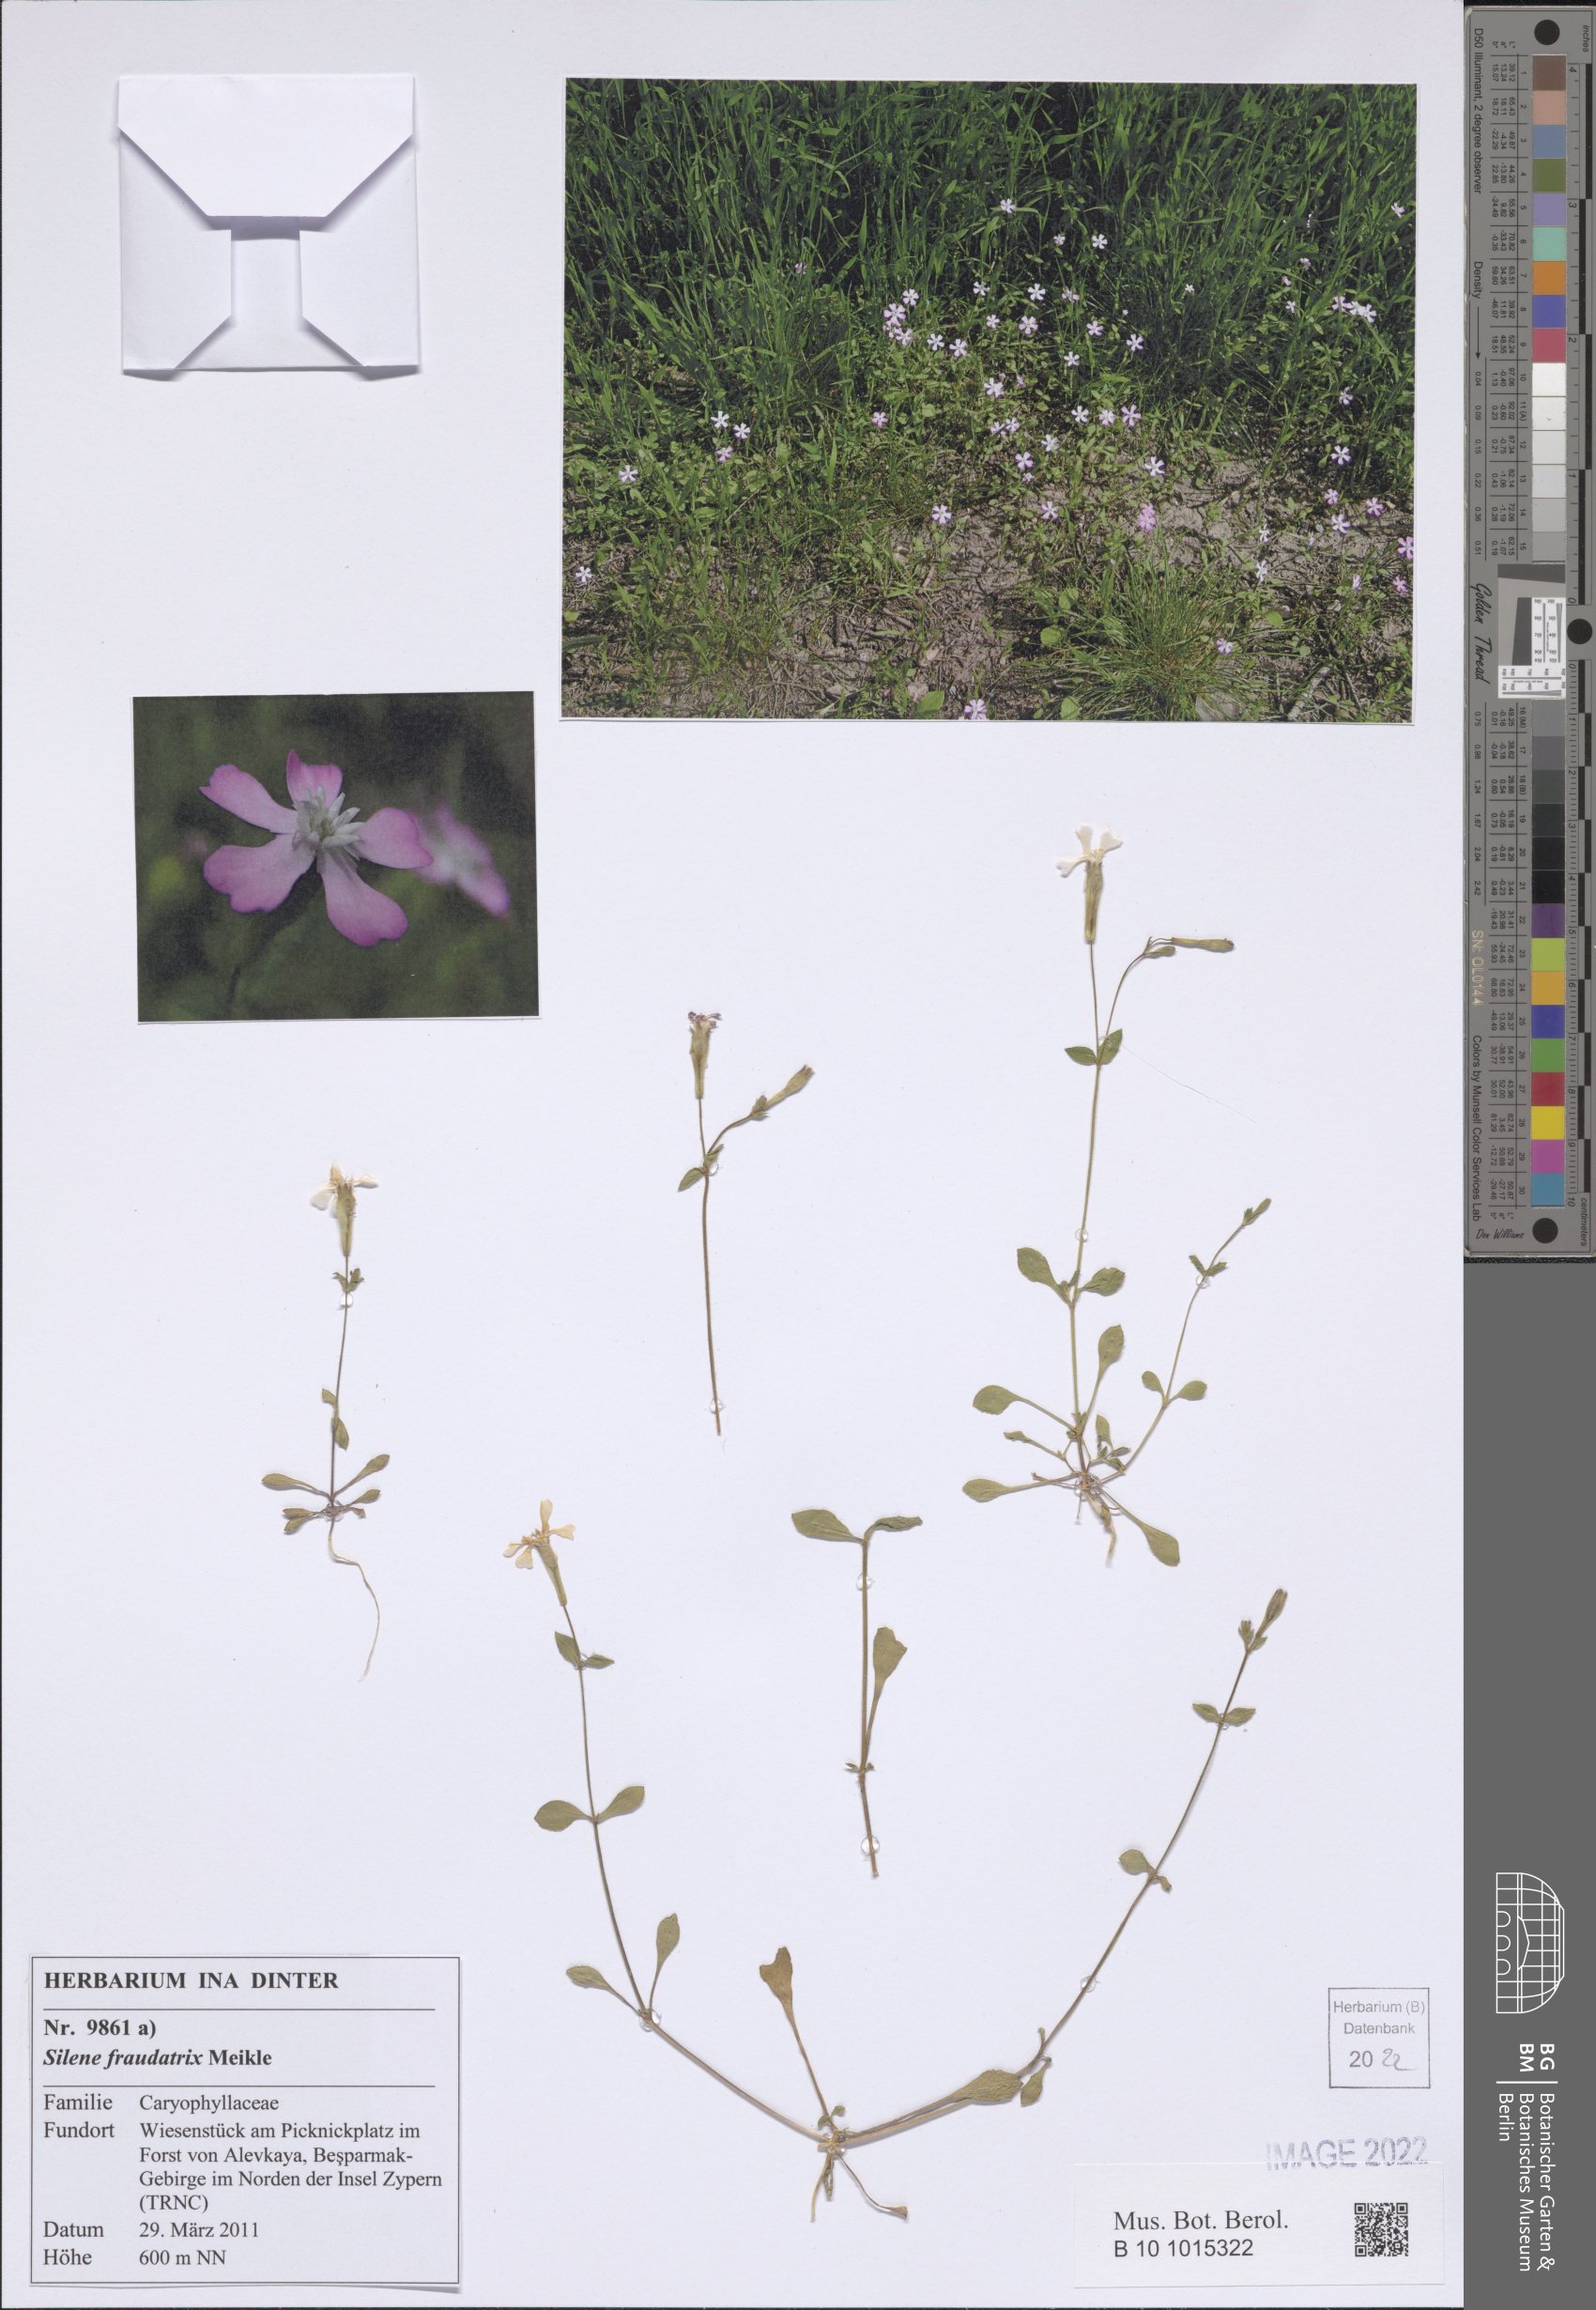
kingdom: Plantae
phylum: Tracheophyta
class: Magnoliopsida
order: Caryophyllales
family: Caryophyllaceae
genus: Silene
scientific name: Silene fraudatrix
